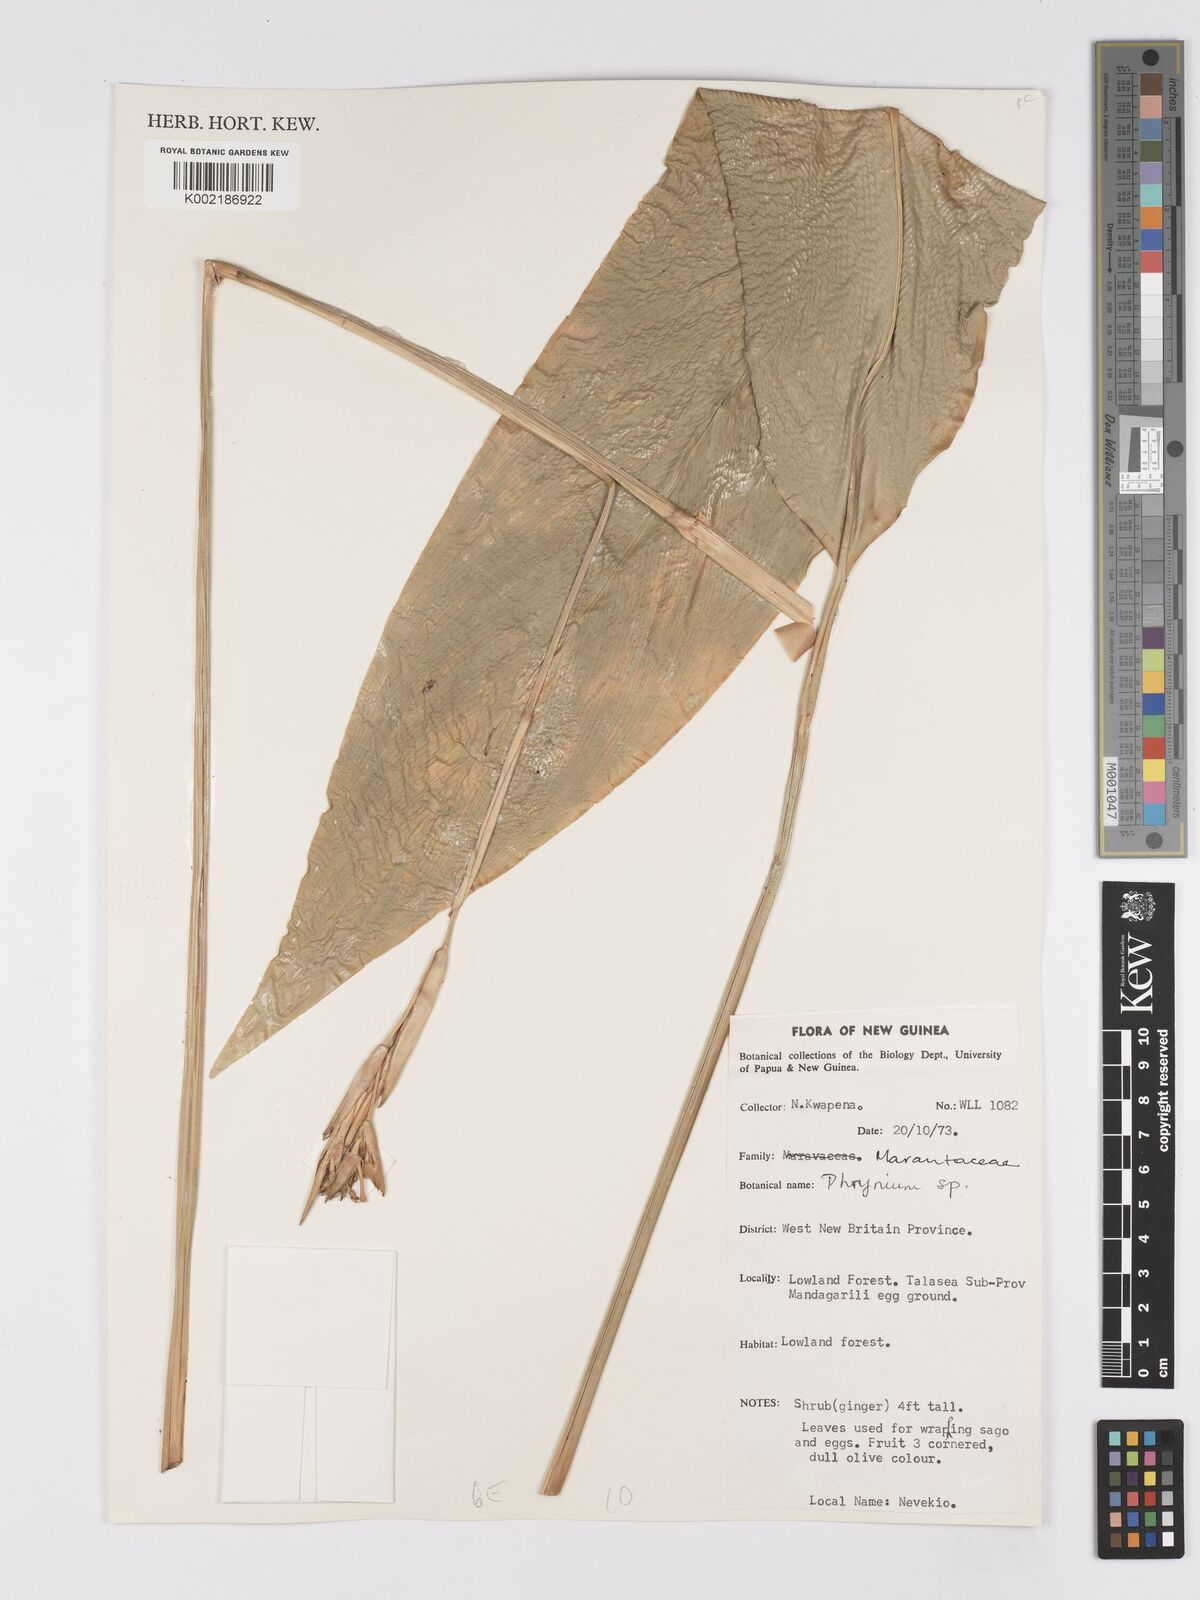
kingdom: Plantae
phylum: Tracheophyta
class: Liliopsida
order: Zingiberales
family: Marantaceae
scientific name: Marantaceae
